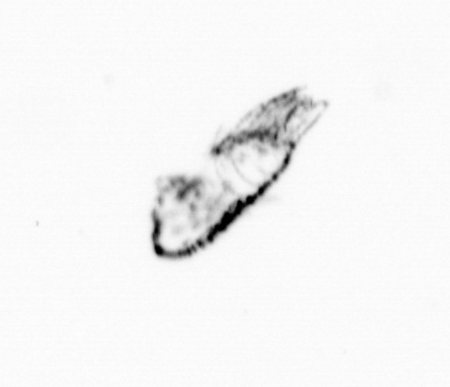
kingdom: Animalia
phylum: Arthropoda
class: Copepoda
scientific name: Copepoda
